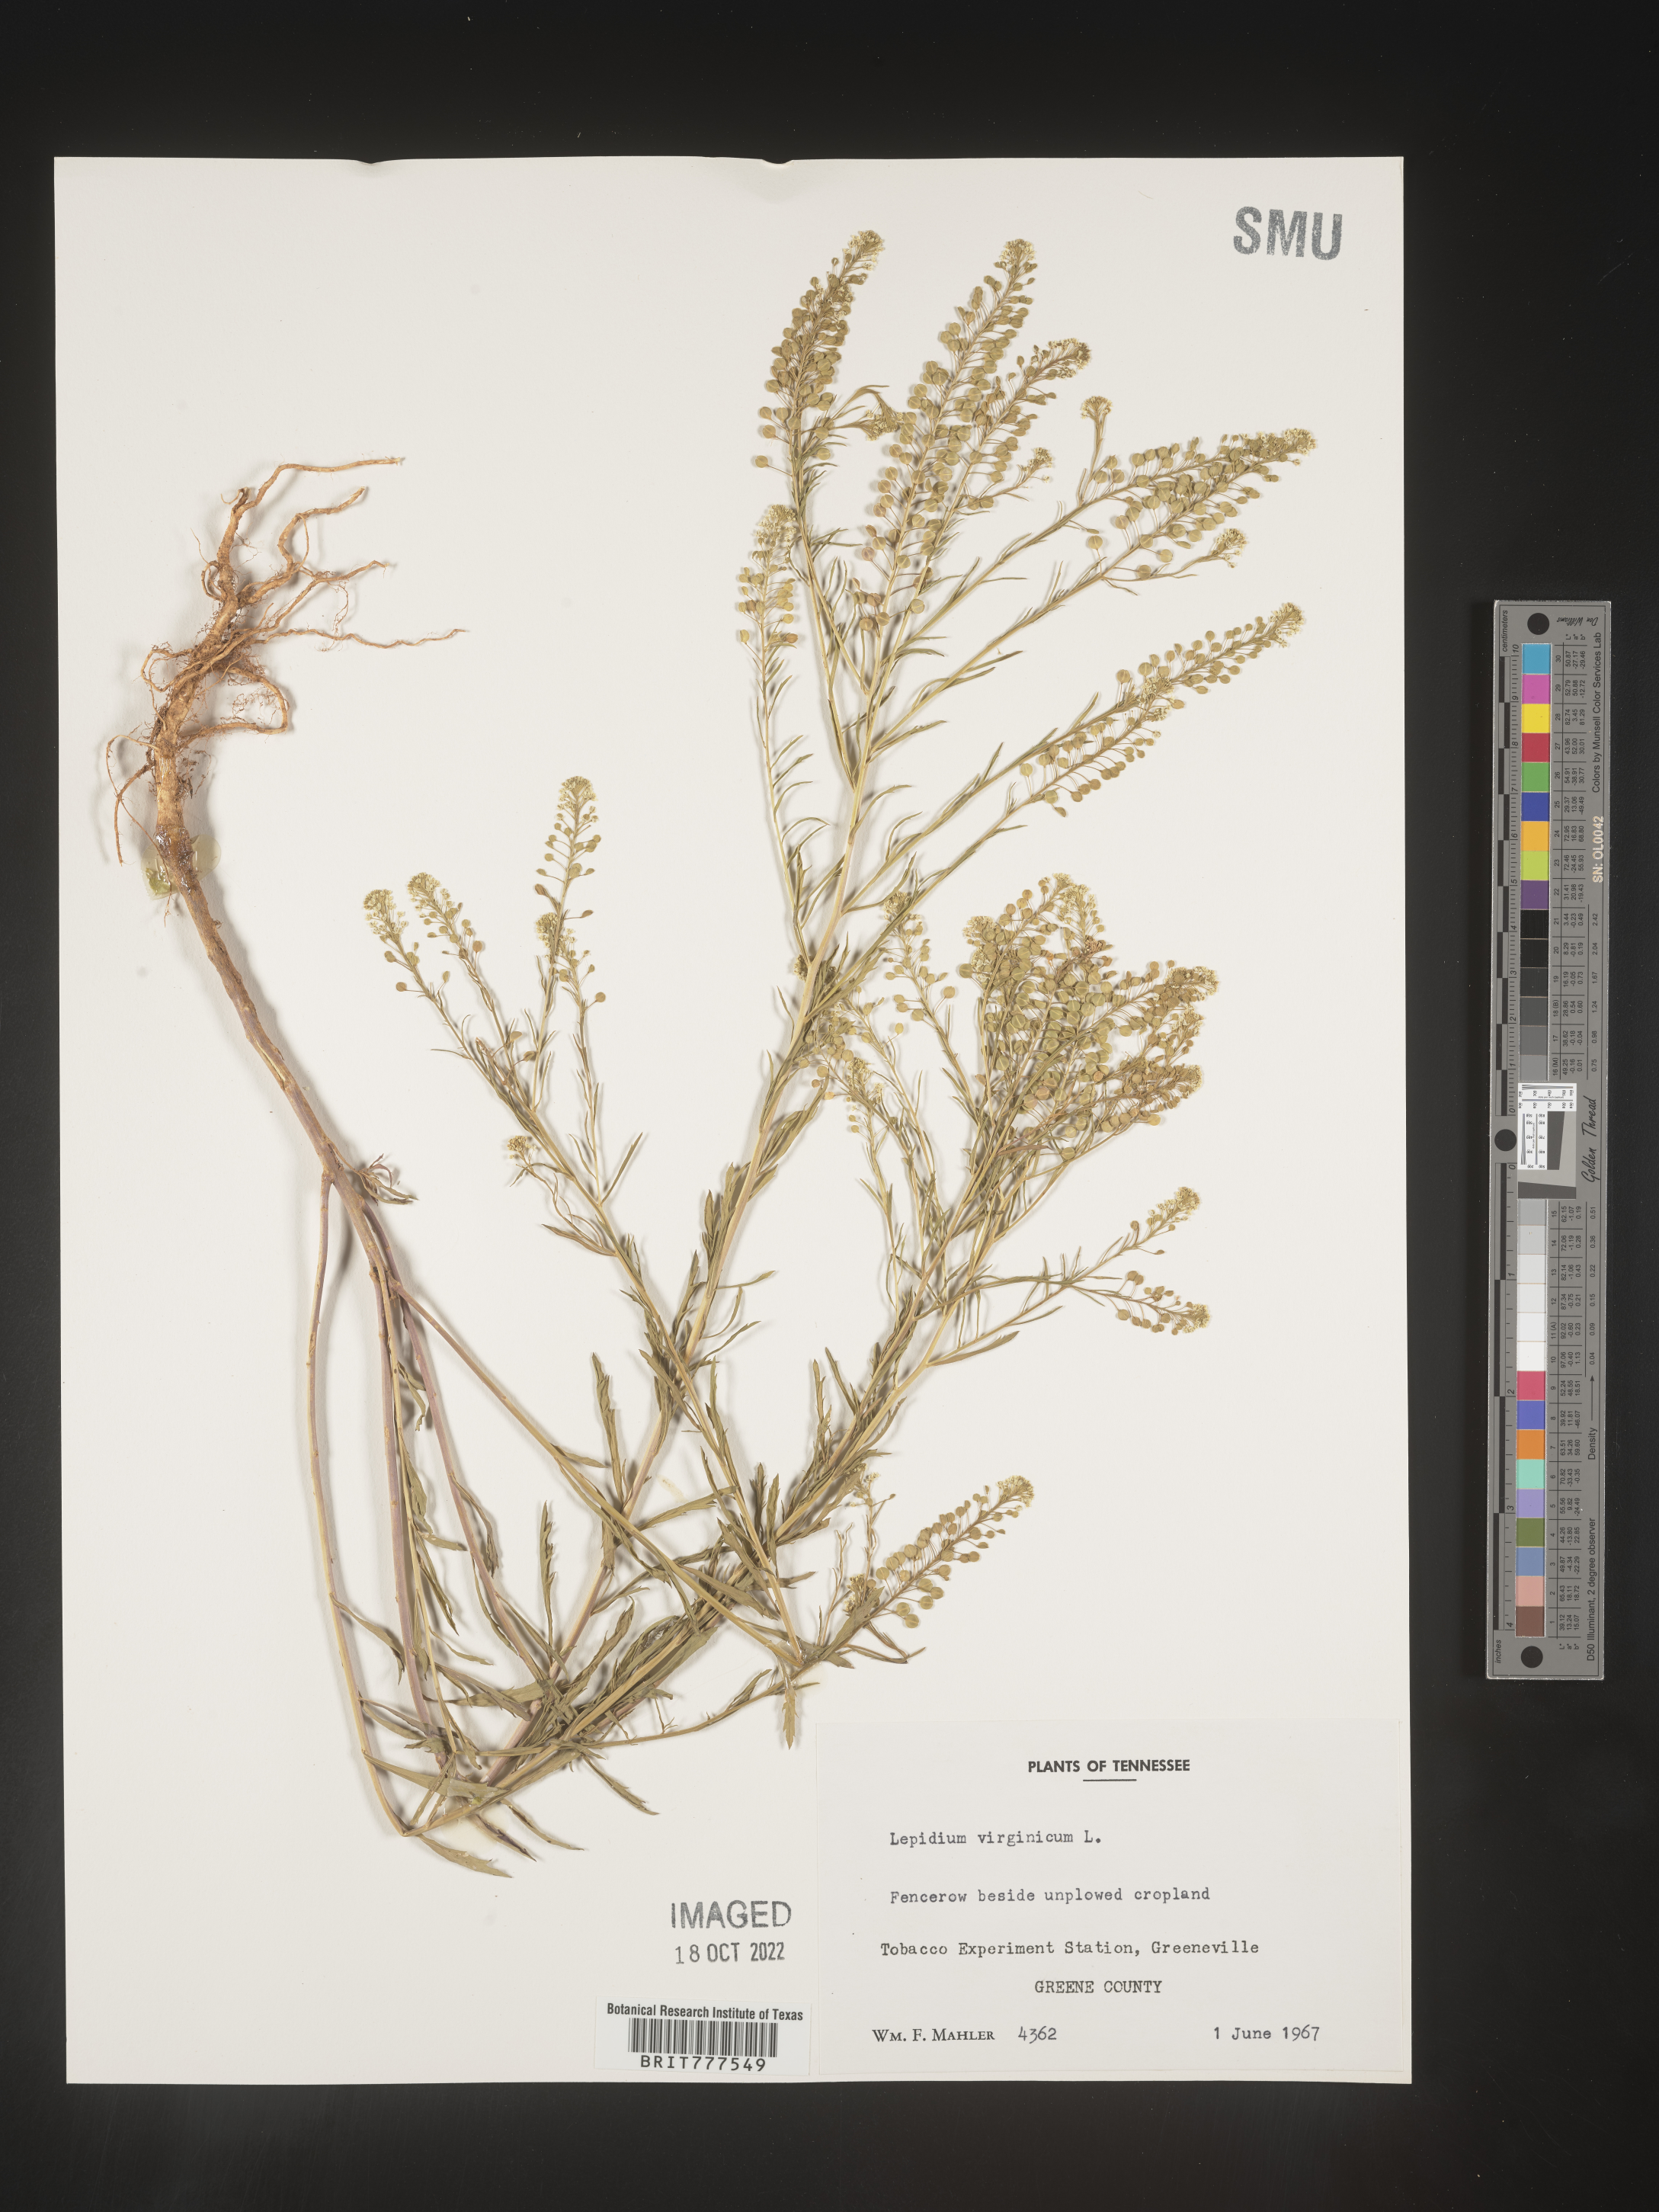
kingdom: Plantae
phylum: Tracheophyta
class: Magnoliopsida
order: Brassicales
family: Brassicaceae
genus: Lepidium
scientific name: Lepidium virginicum
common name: Least pepperwort
